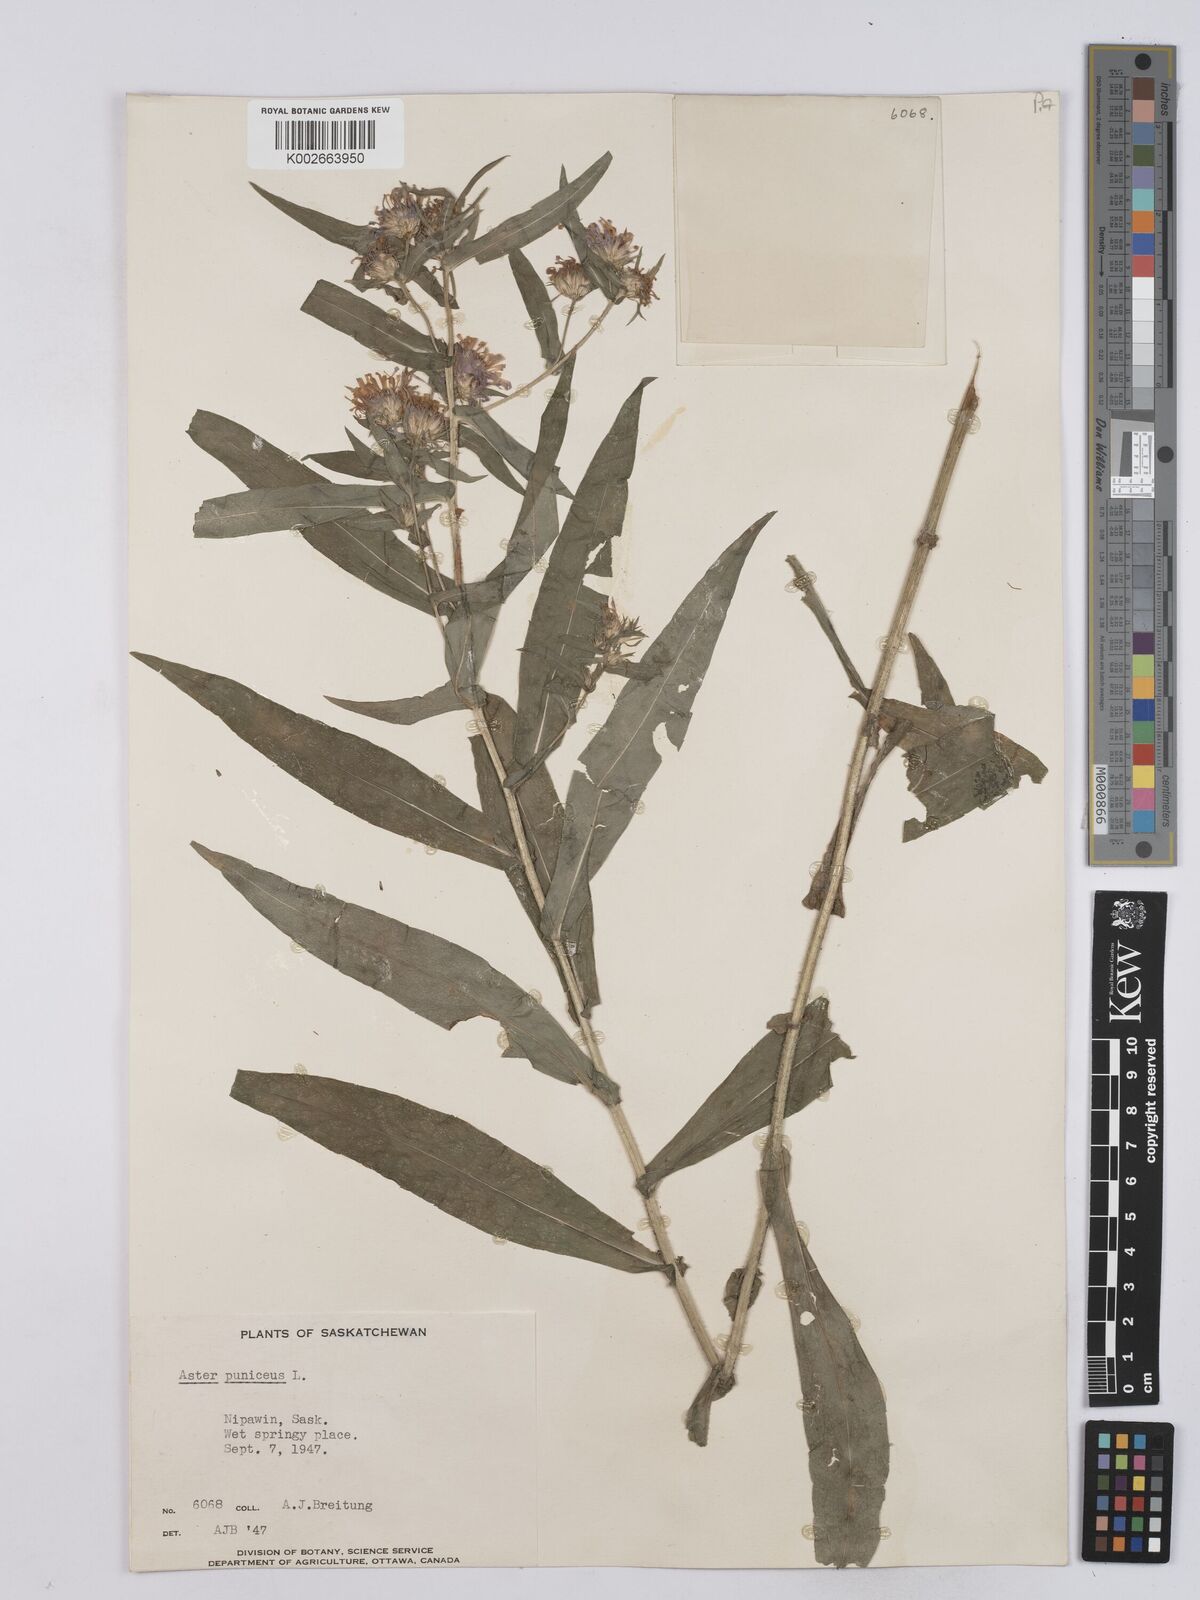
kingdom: Plantae
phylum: Tracheophyta
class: Magnoliopsida
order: Asterales
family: Asteraceae
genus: Symphyotrichum
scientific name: Symphyotrichum puniceum
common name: Bog aster
